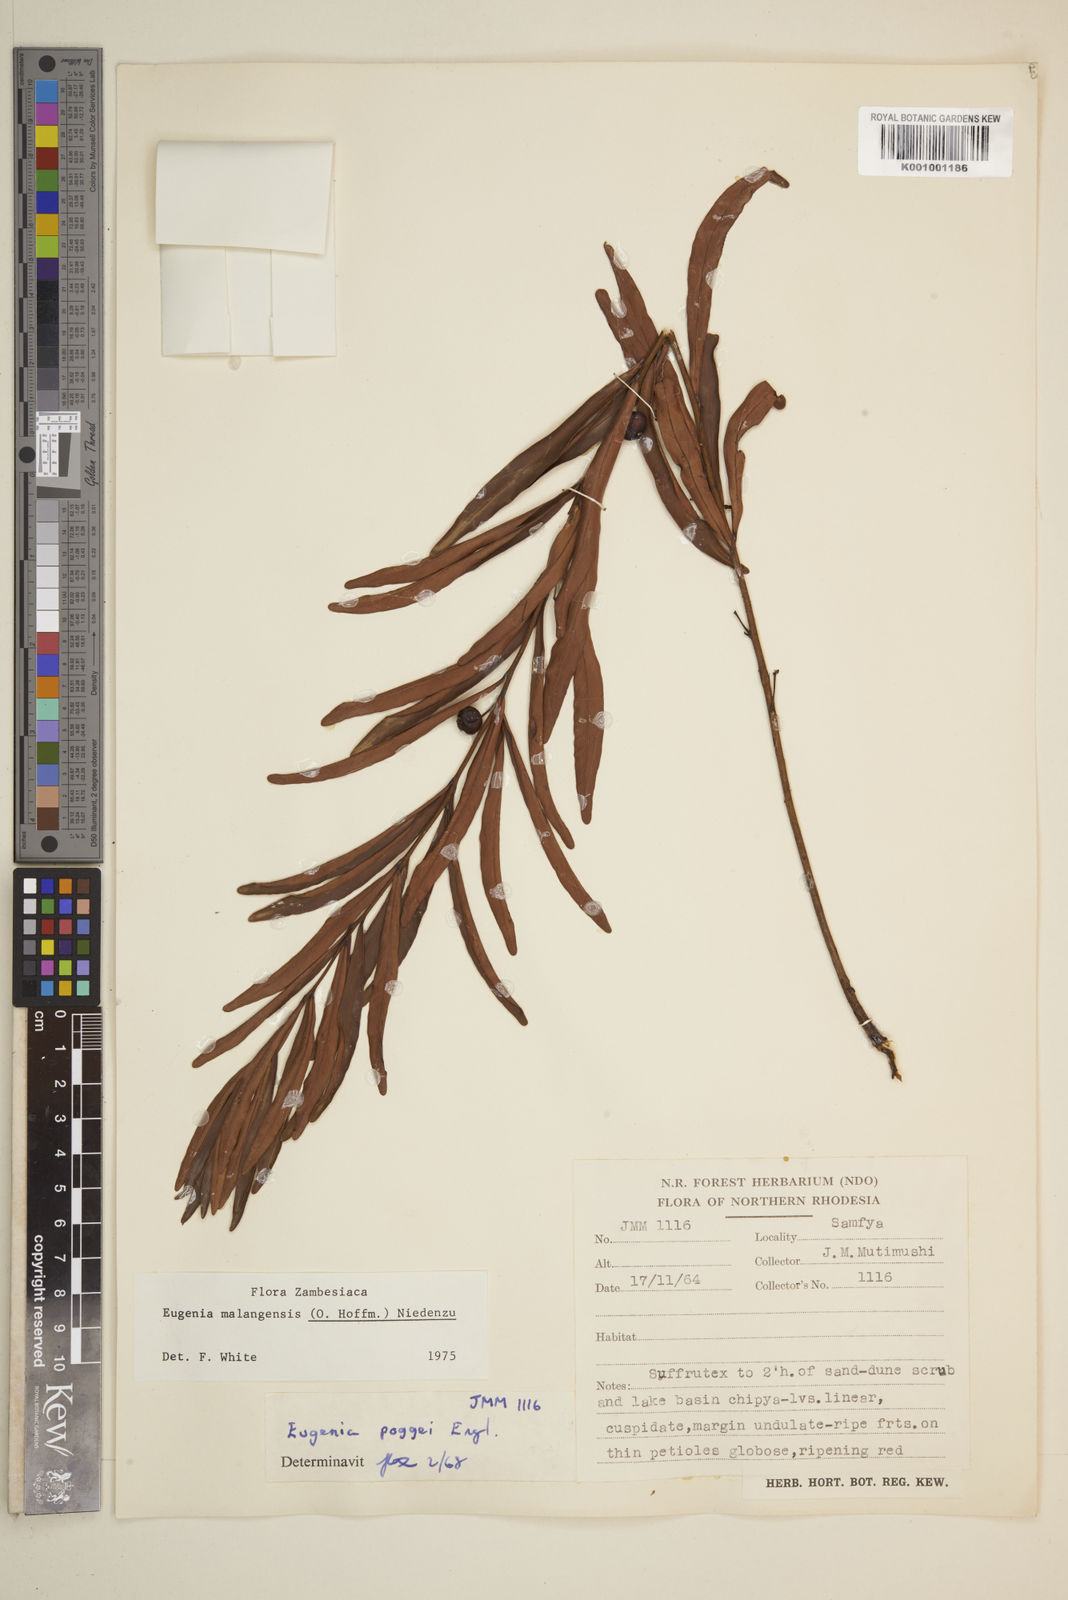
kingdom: Plantae
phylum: Tracheophyta
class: Magnoliopsida
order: Myrtales
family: Myrtaceae
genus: Eugenia
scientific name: Eugenia malangensis
